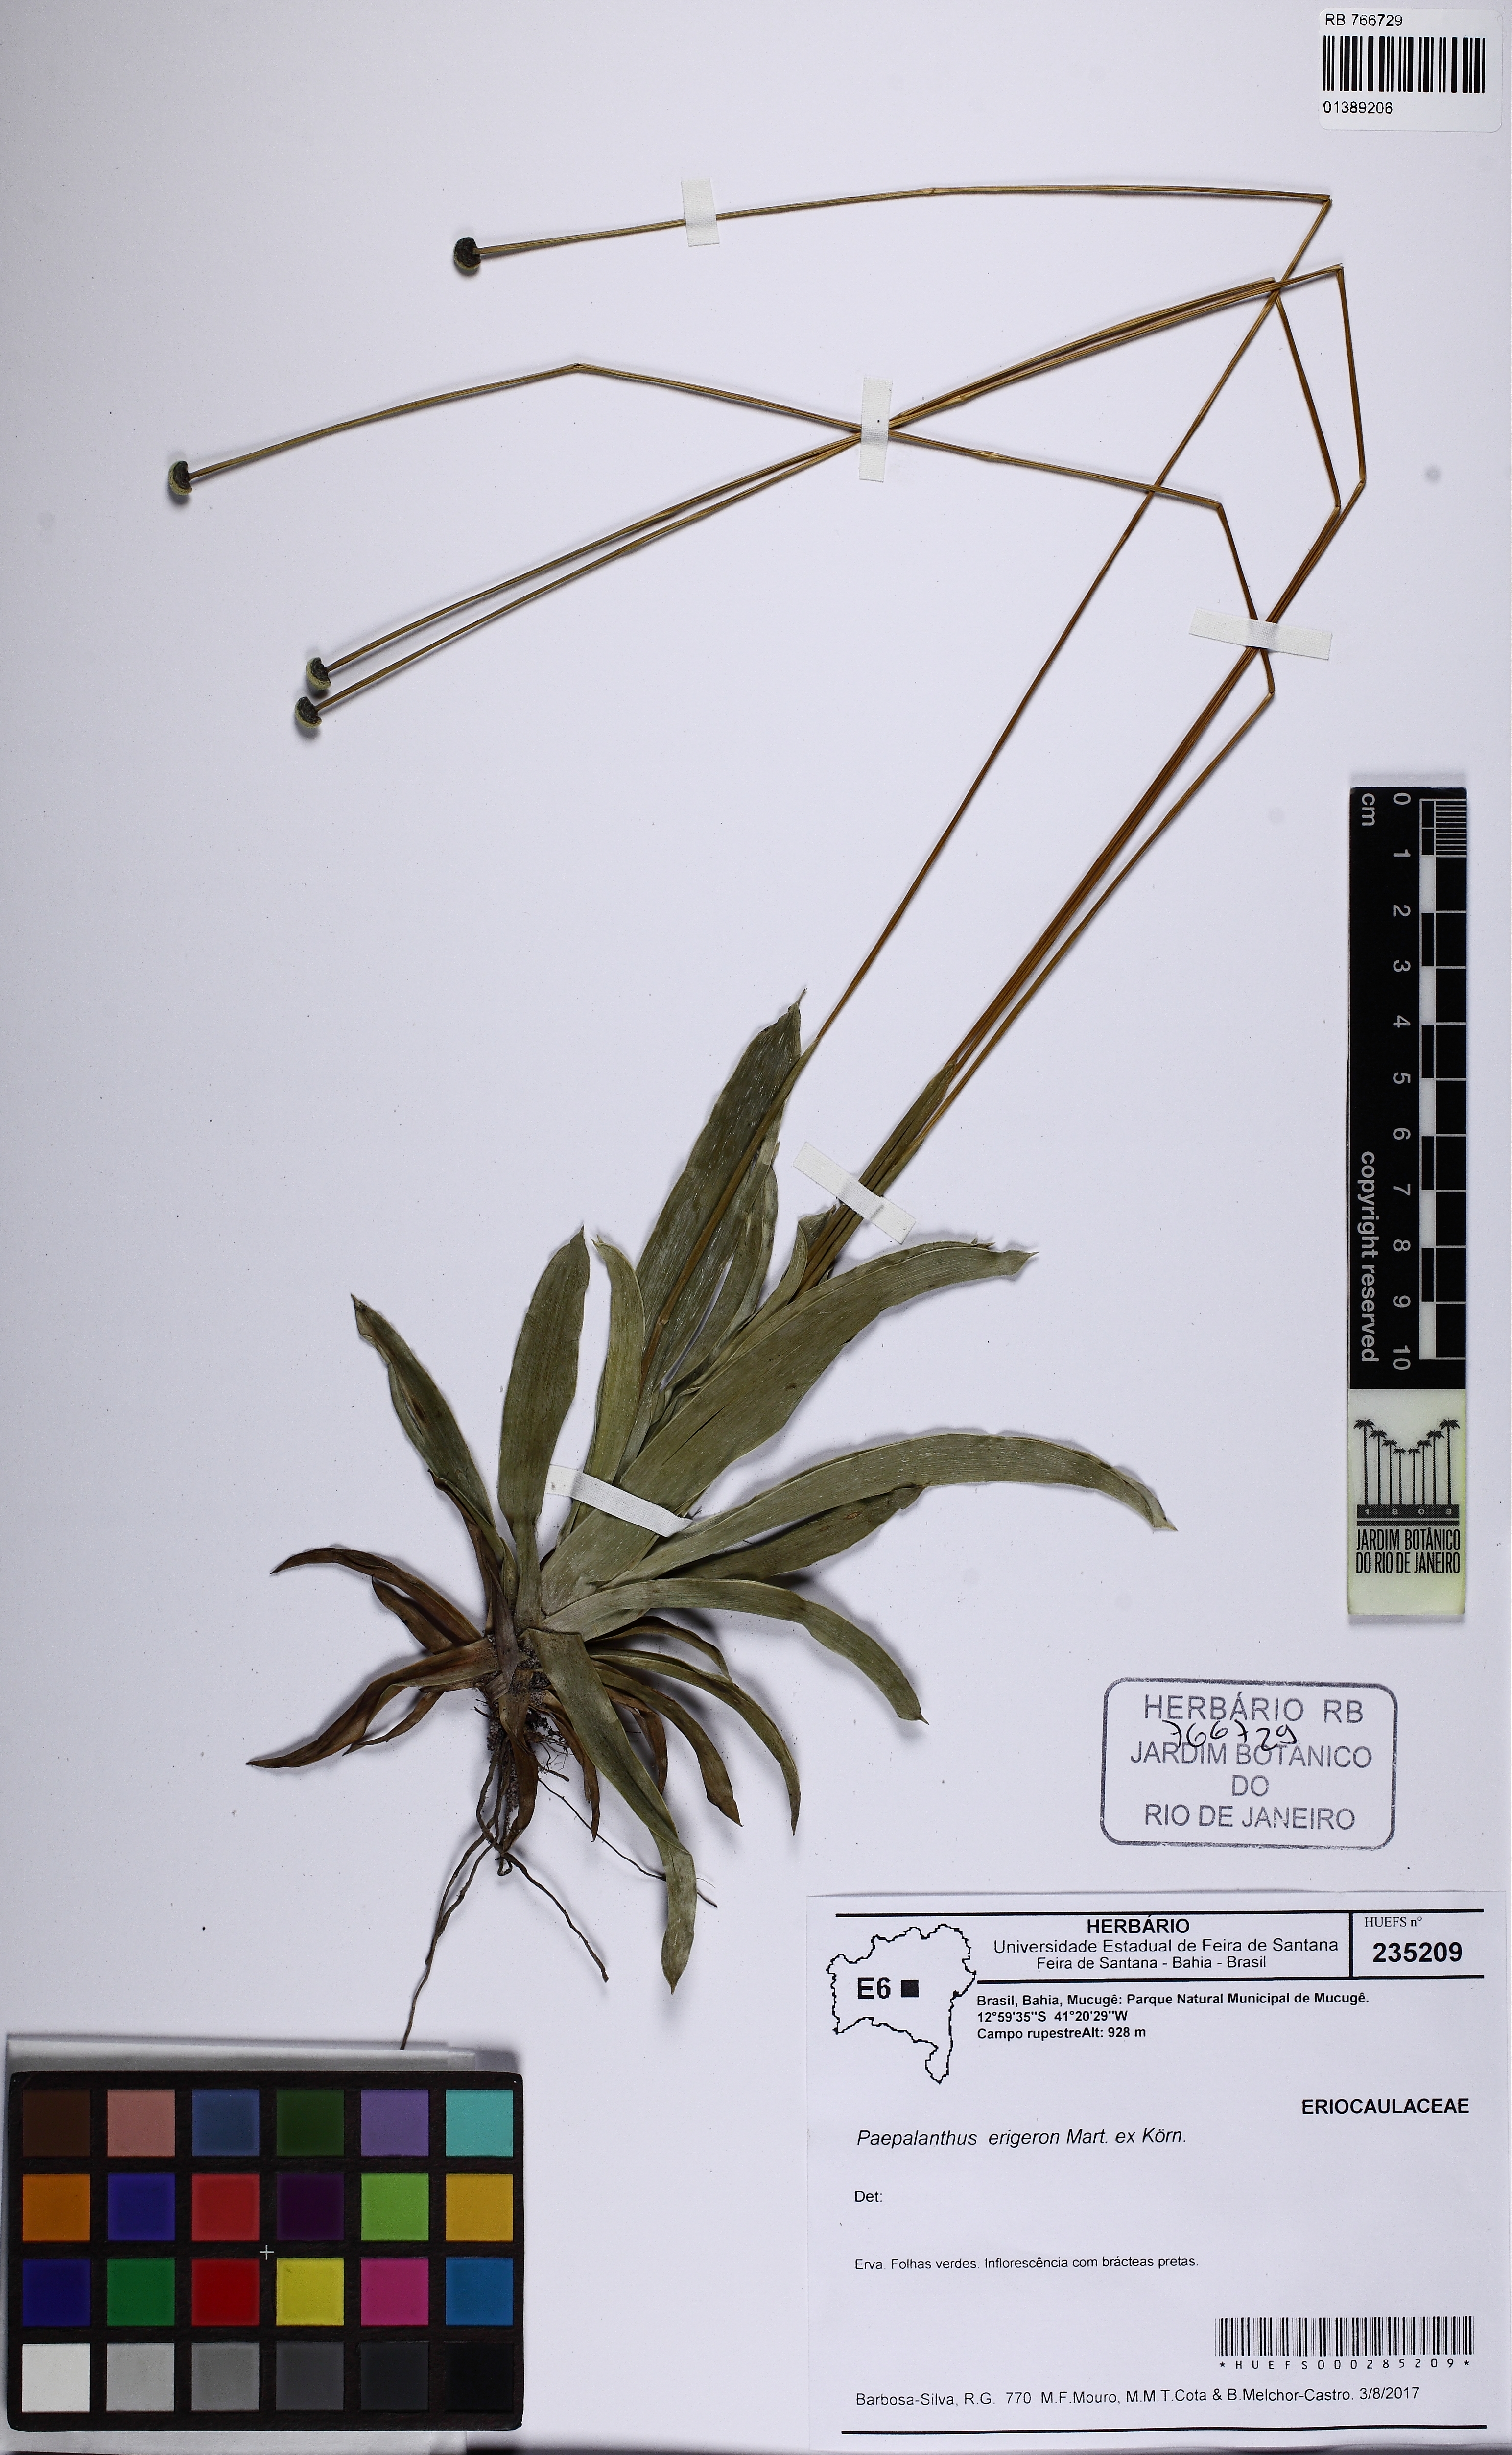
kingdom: Plantae
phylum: Tracheophyta
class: Liliopsida
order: Poales
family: Eriocaulaceae
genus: Paepalanthus
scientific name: Paepalanthus erigeron
